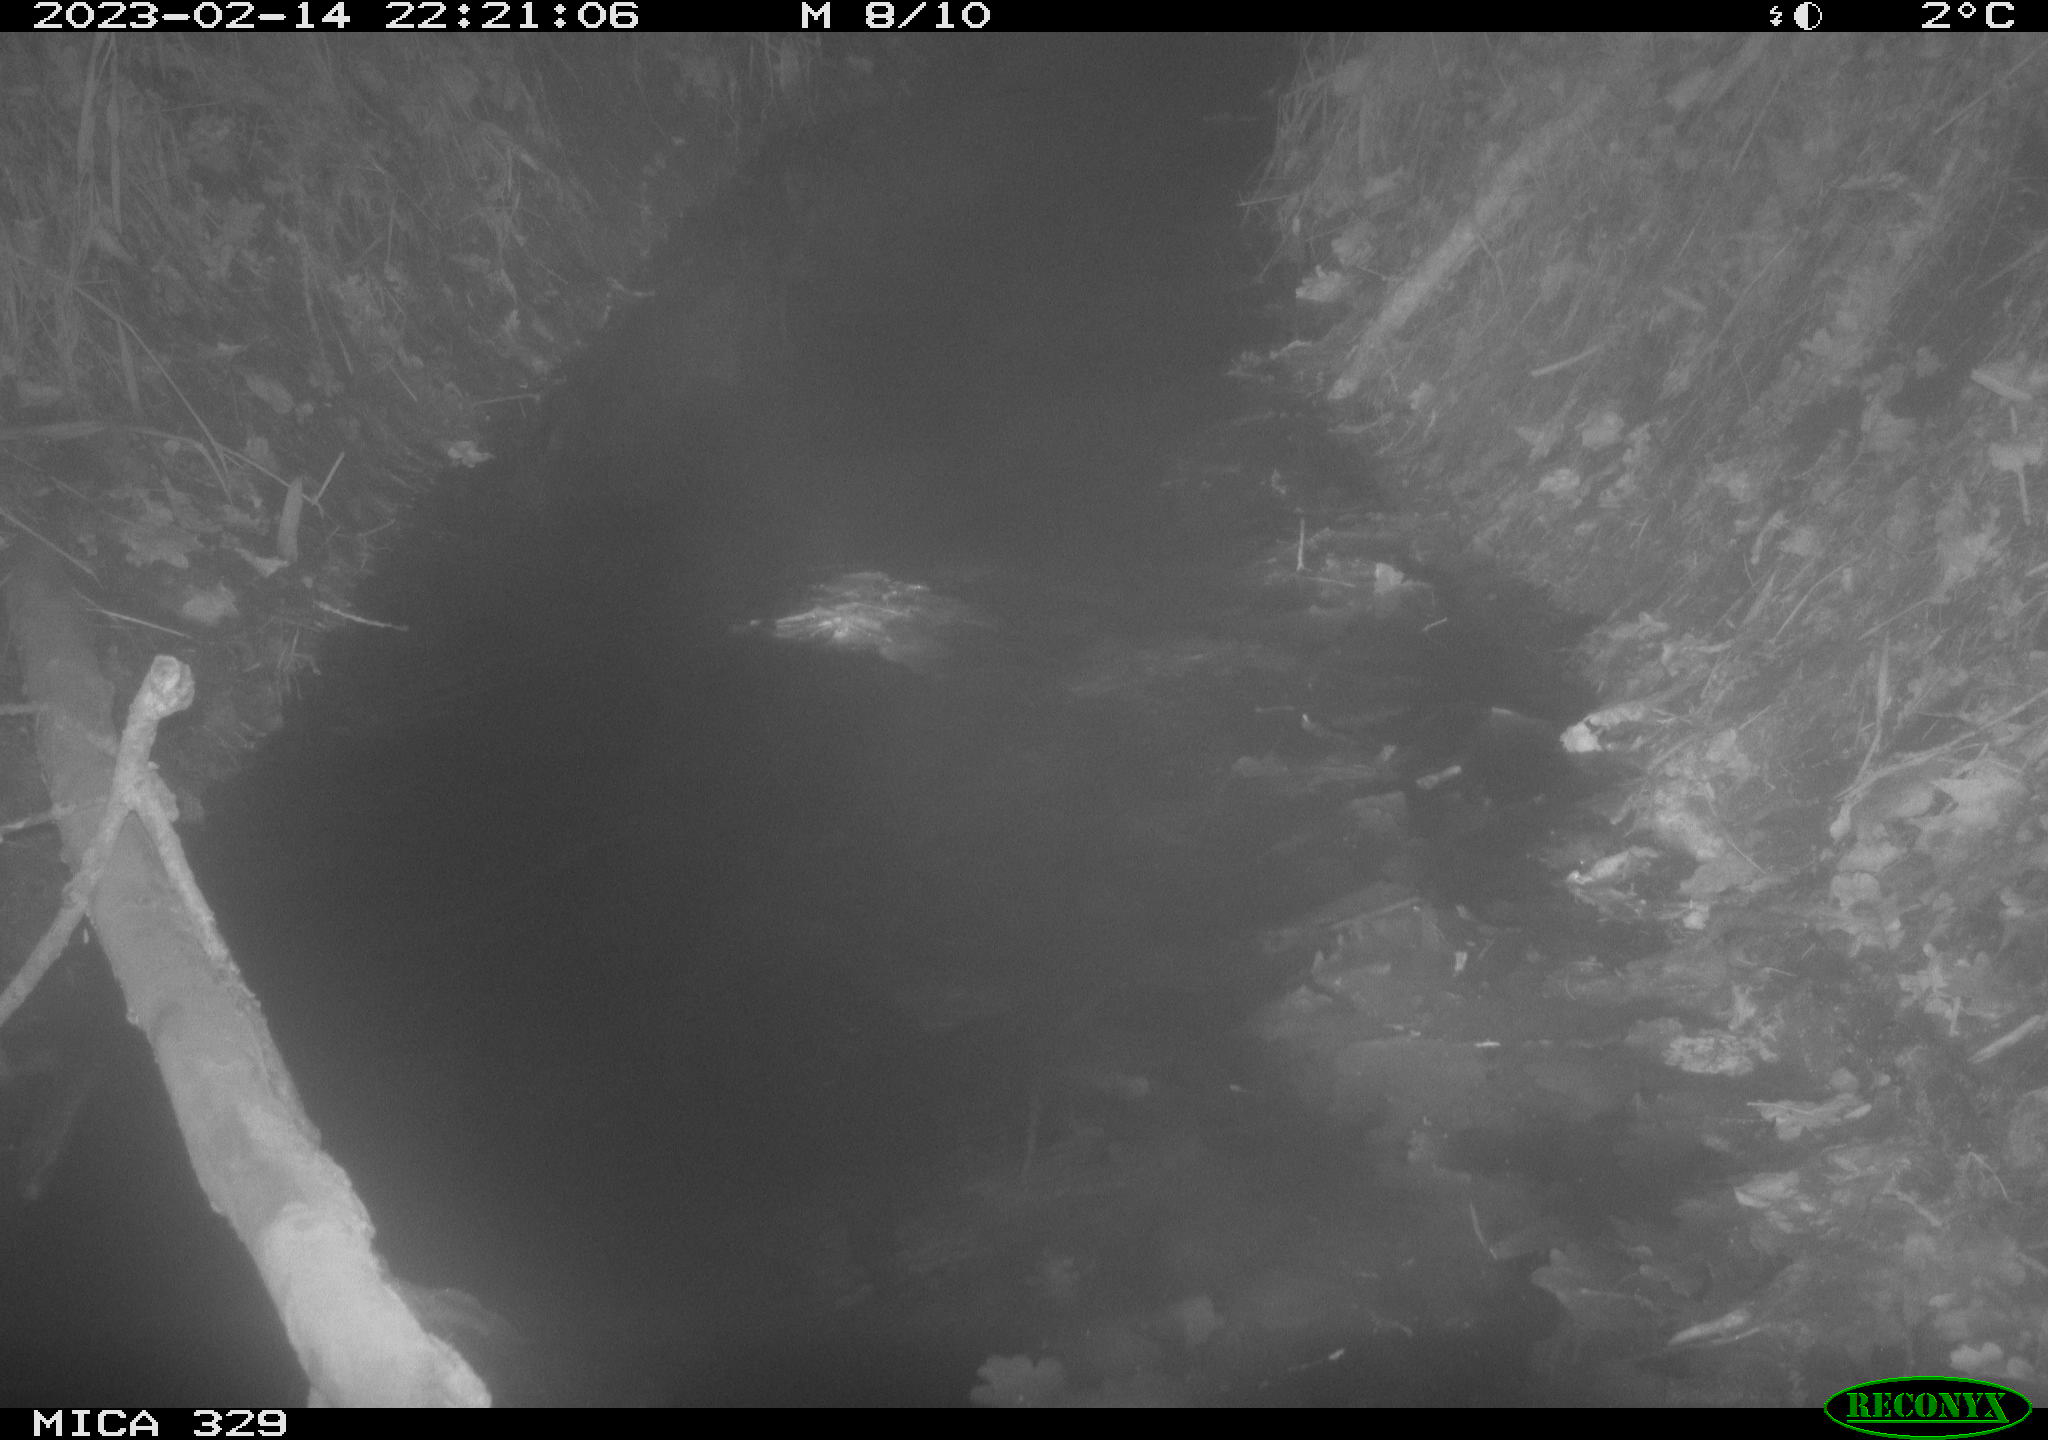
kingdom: Animalia
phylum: Chordata
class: Mammalia
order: Rodentia
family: Cricetidae
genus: Ondatra
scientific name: Ondatra zibethicus
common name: Muskrat
